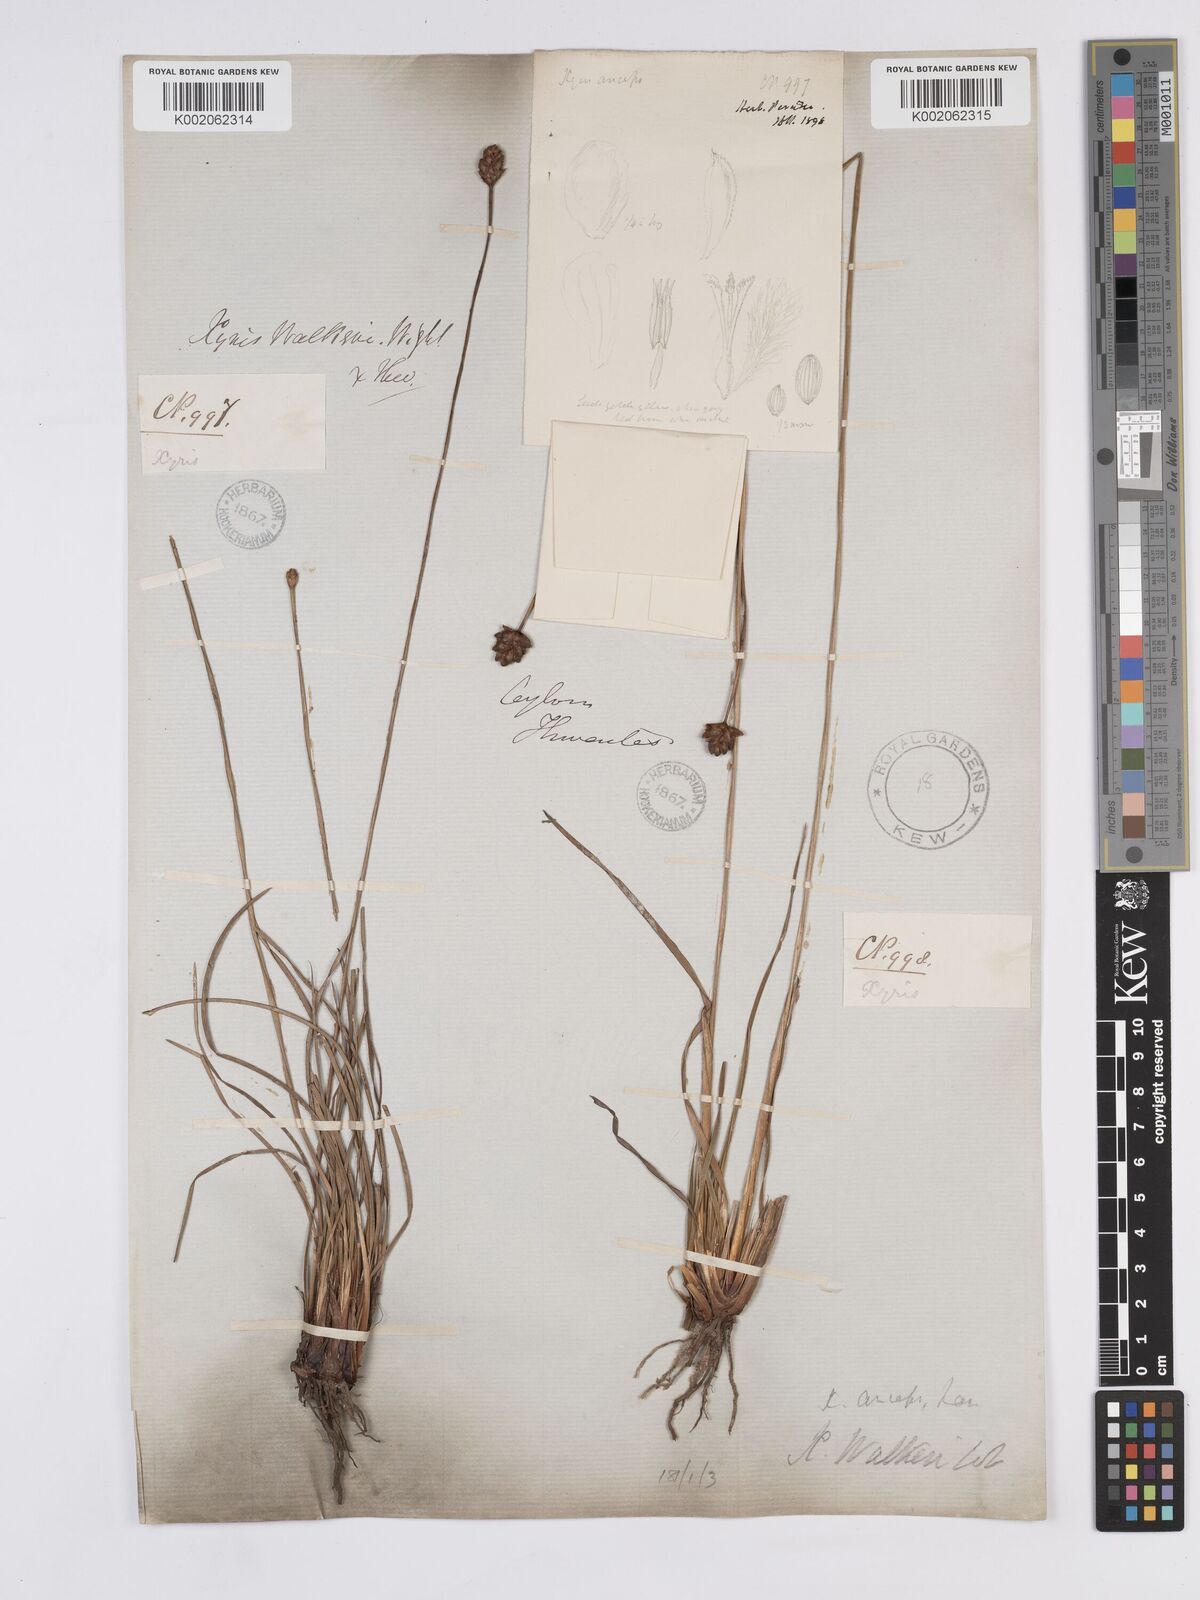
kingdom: Plantae
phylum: Tracheophyta
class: Liliopsida
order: Poales
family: Xyridaceae
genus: Xyris
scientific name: Xyris complanata
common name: Hawai'i yelloweyed grass
